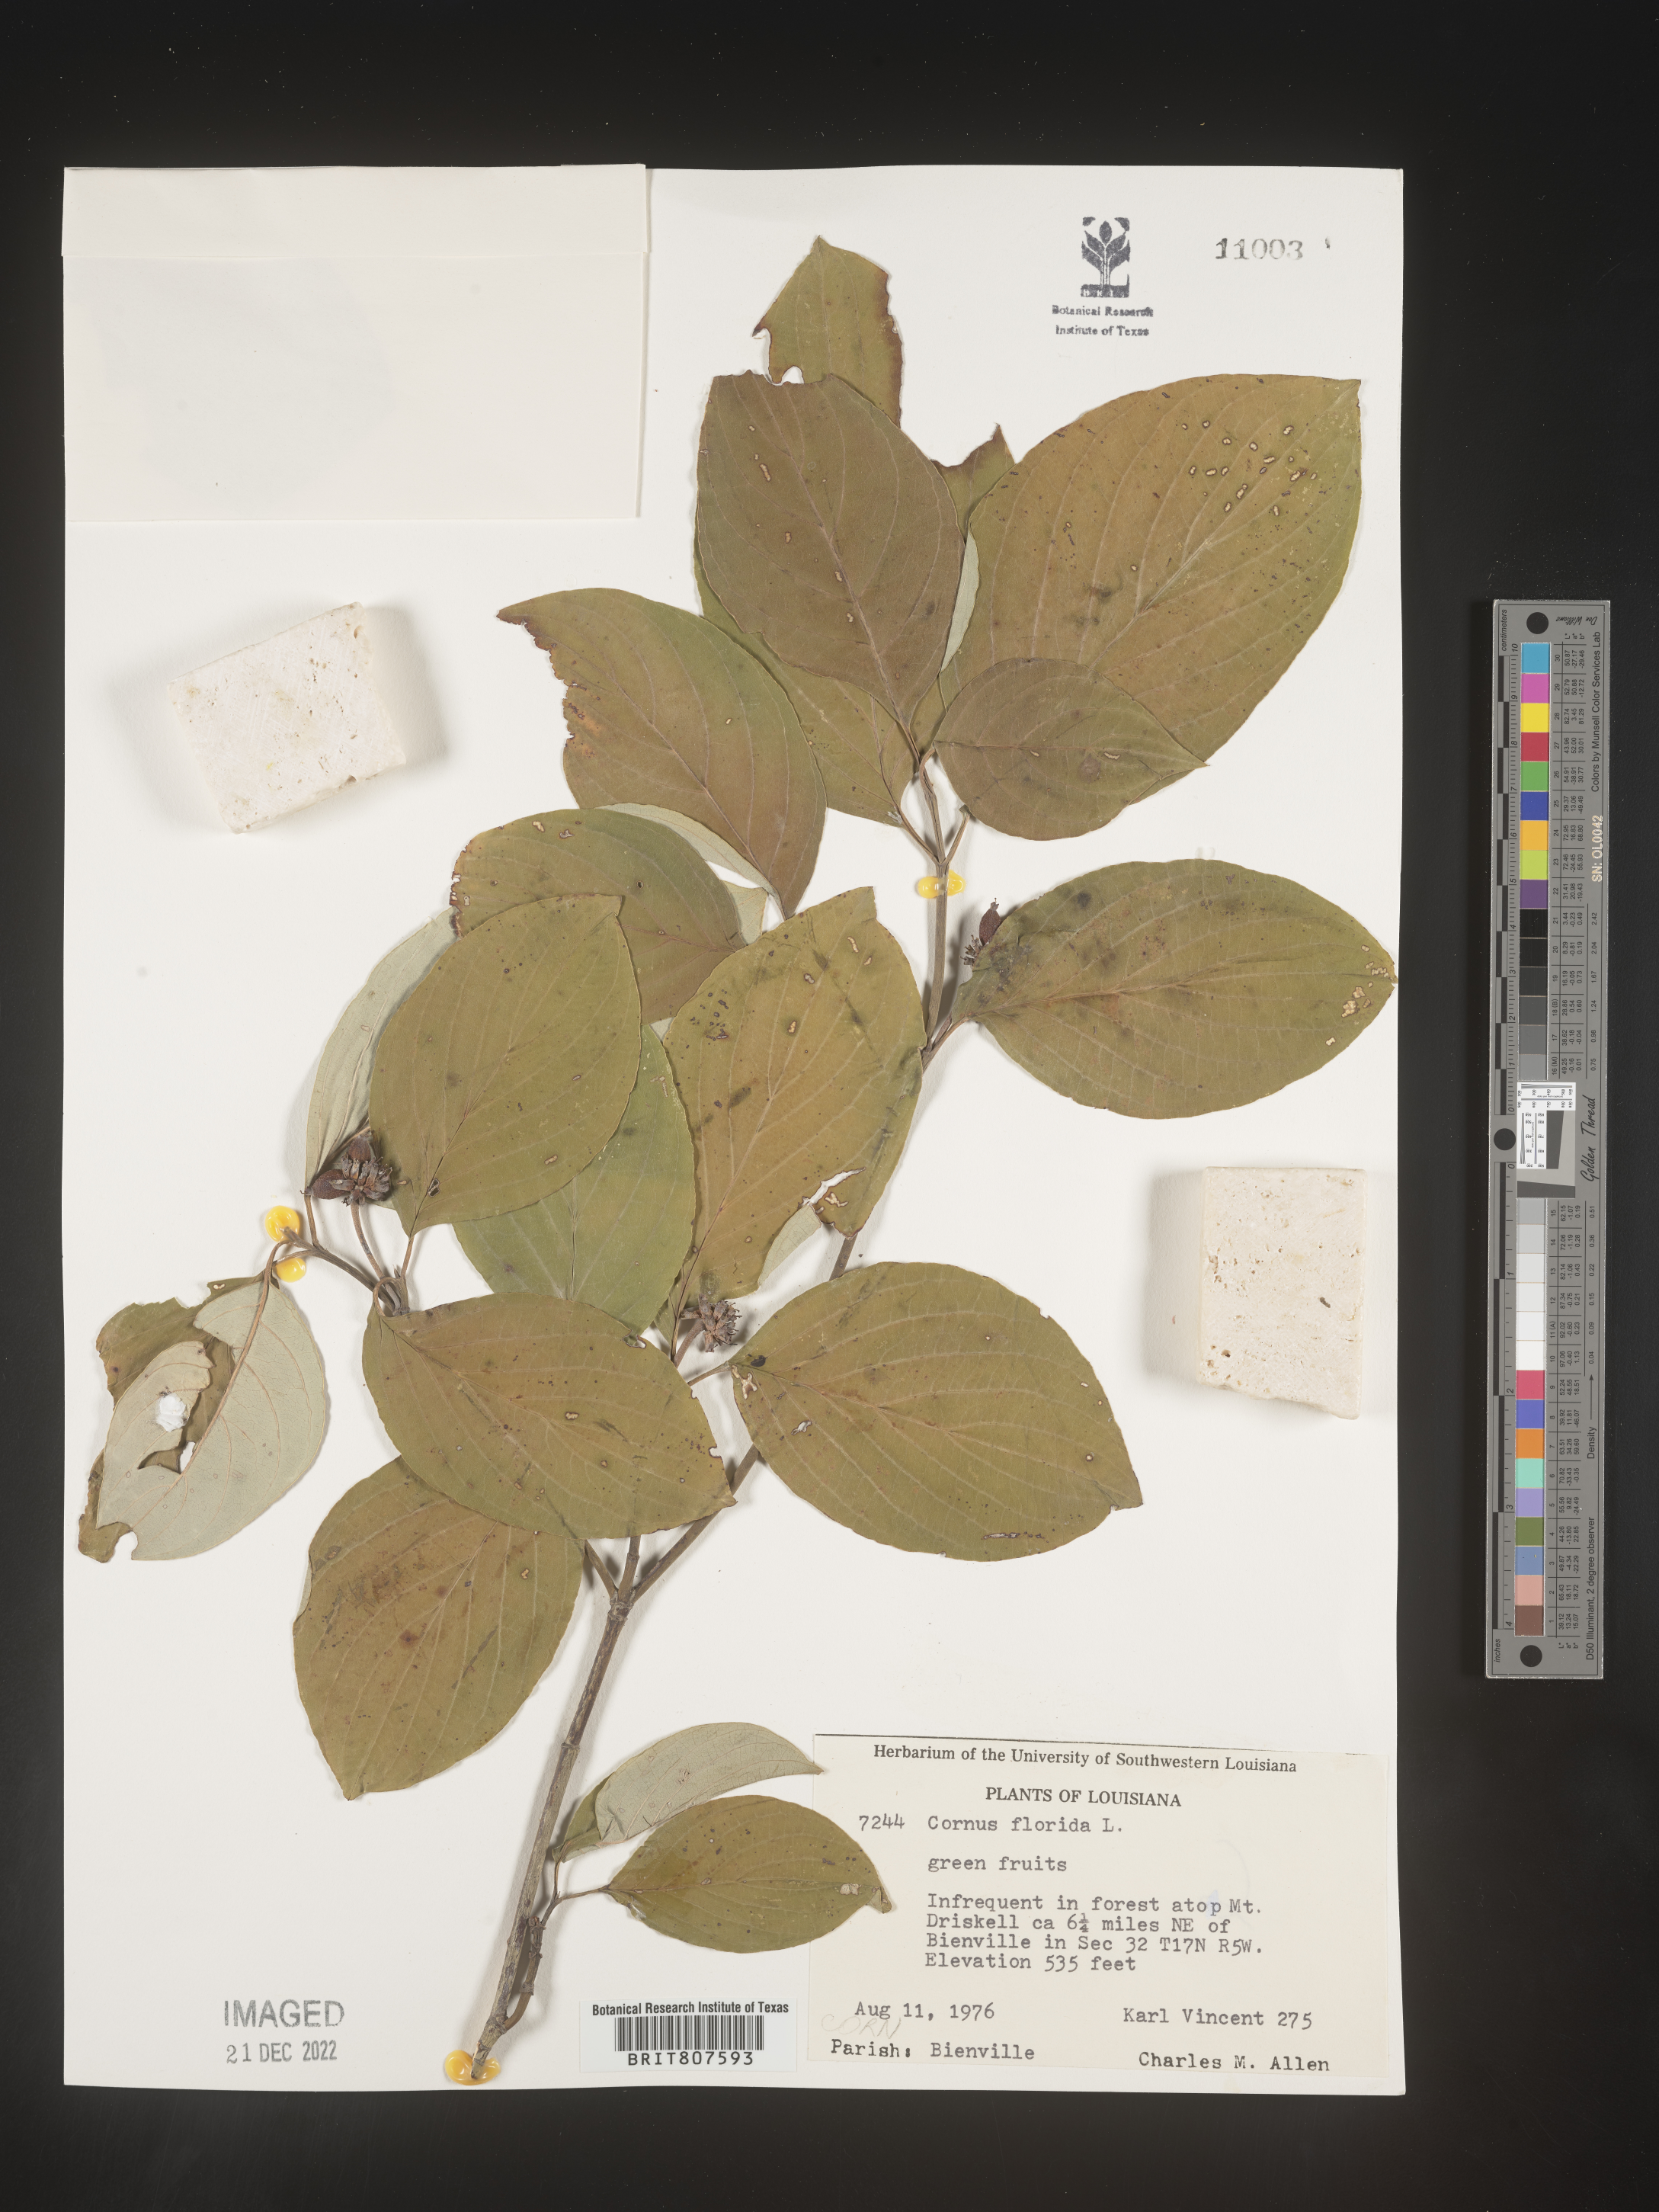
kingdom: Plantae
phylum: Tracheophyta
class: Magnoliopsida
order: Cornales
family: Cornaceae
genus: Cornus
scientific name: Cornus florida
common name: Flowering dogwood
